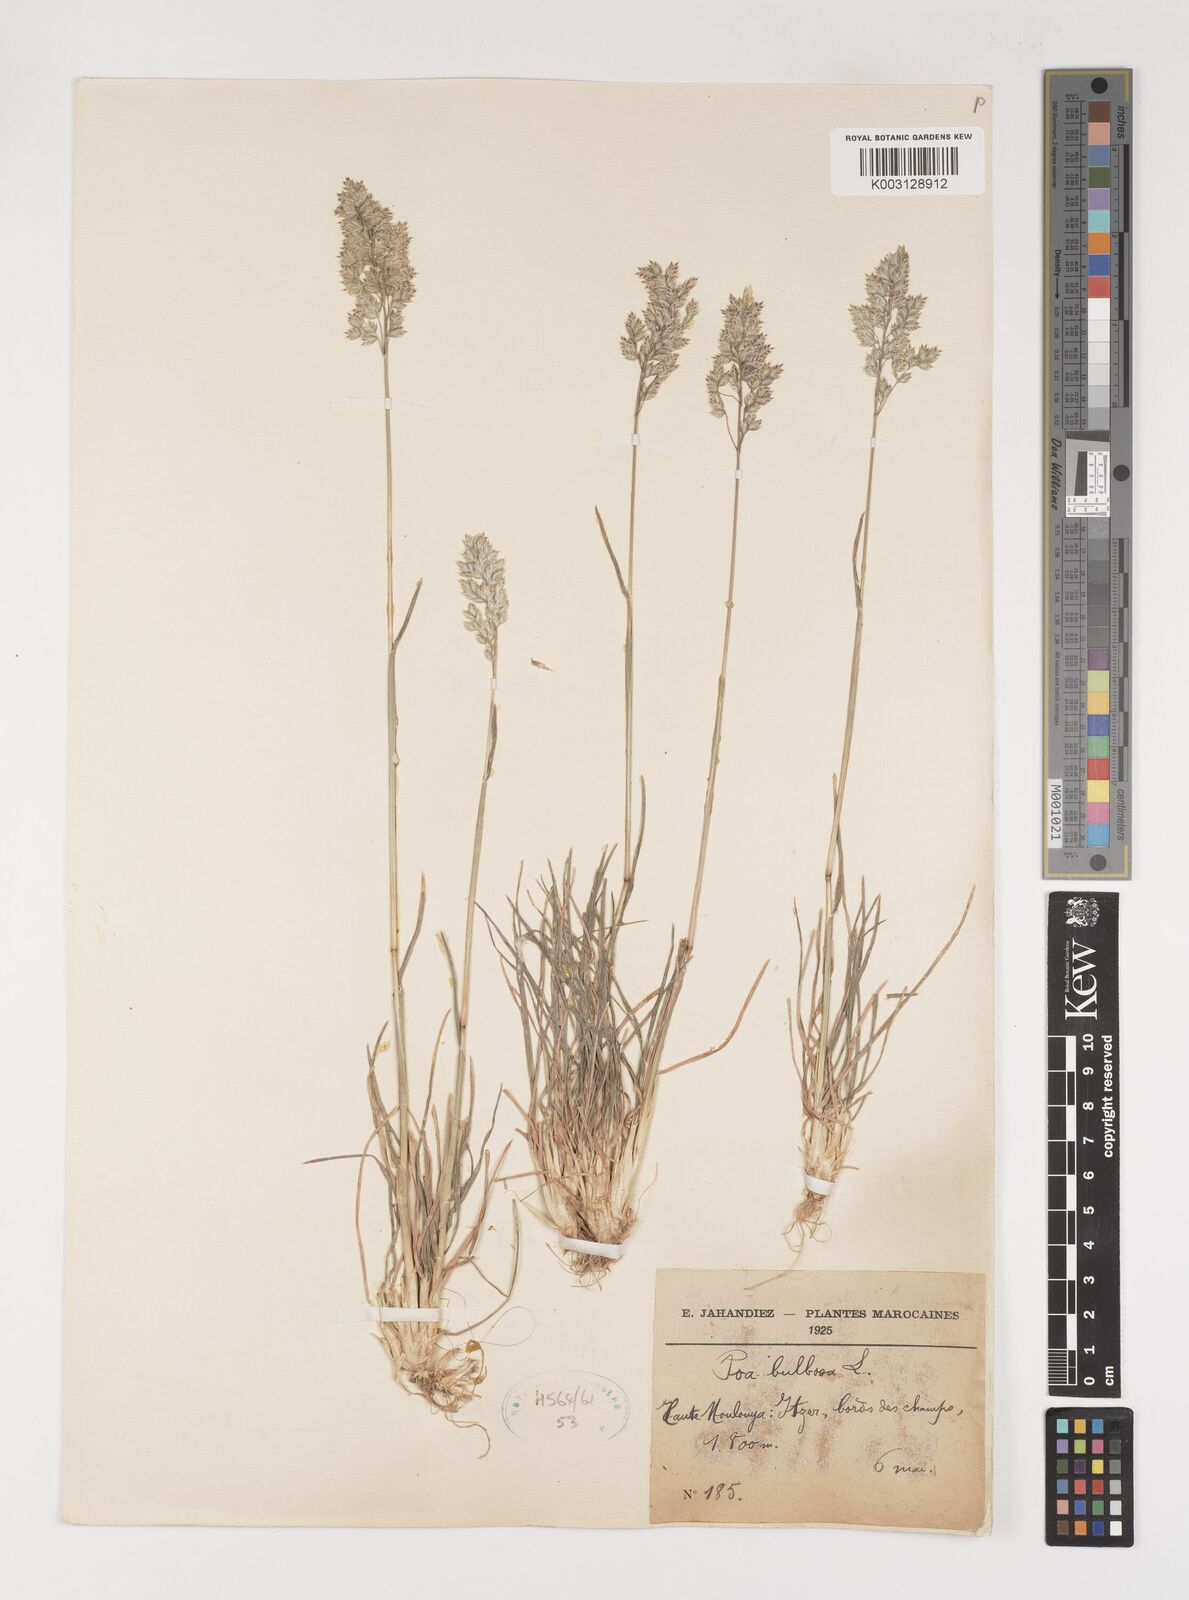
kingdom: Plantae
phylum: Tracheophyta
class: Liliopsida
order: Poales
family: Poaceae
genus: Poa
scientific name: Poa bulbosa
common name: Bulbous bluegrass
